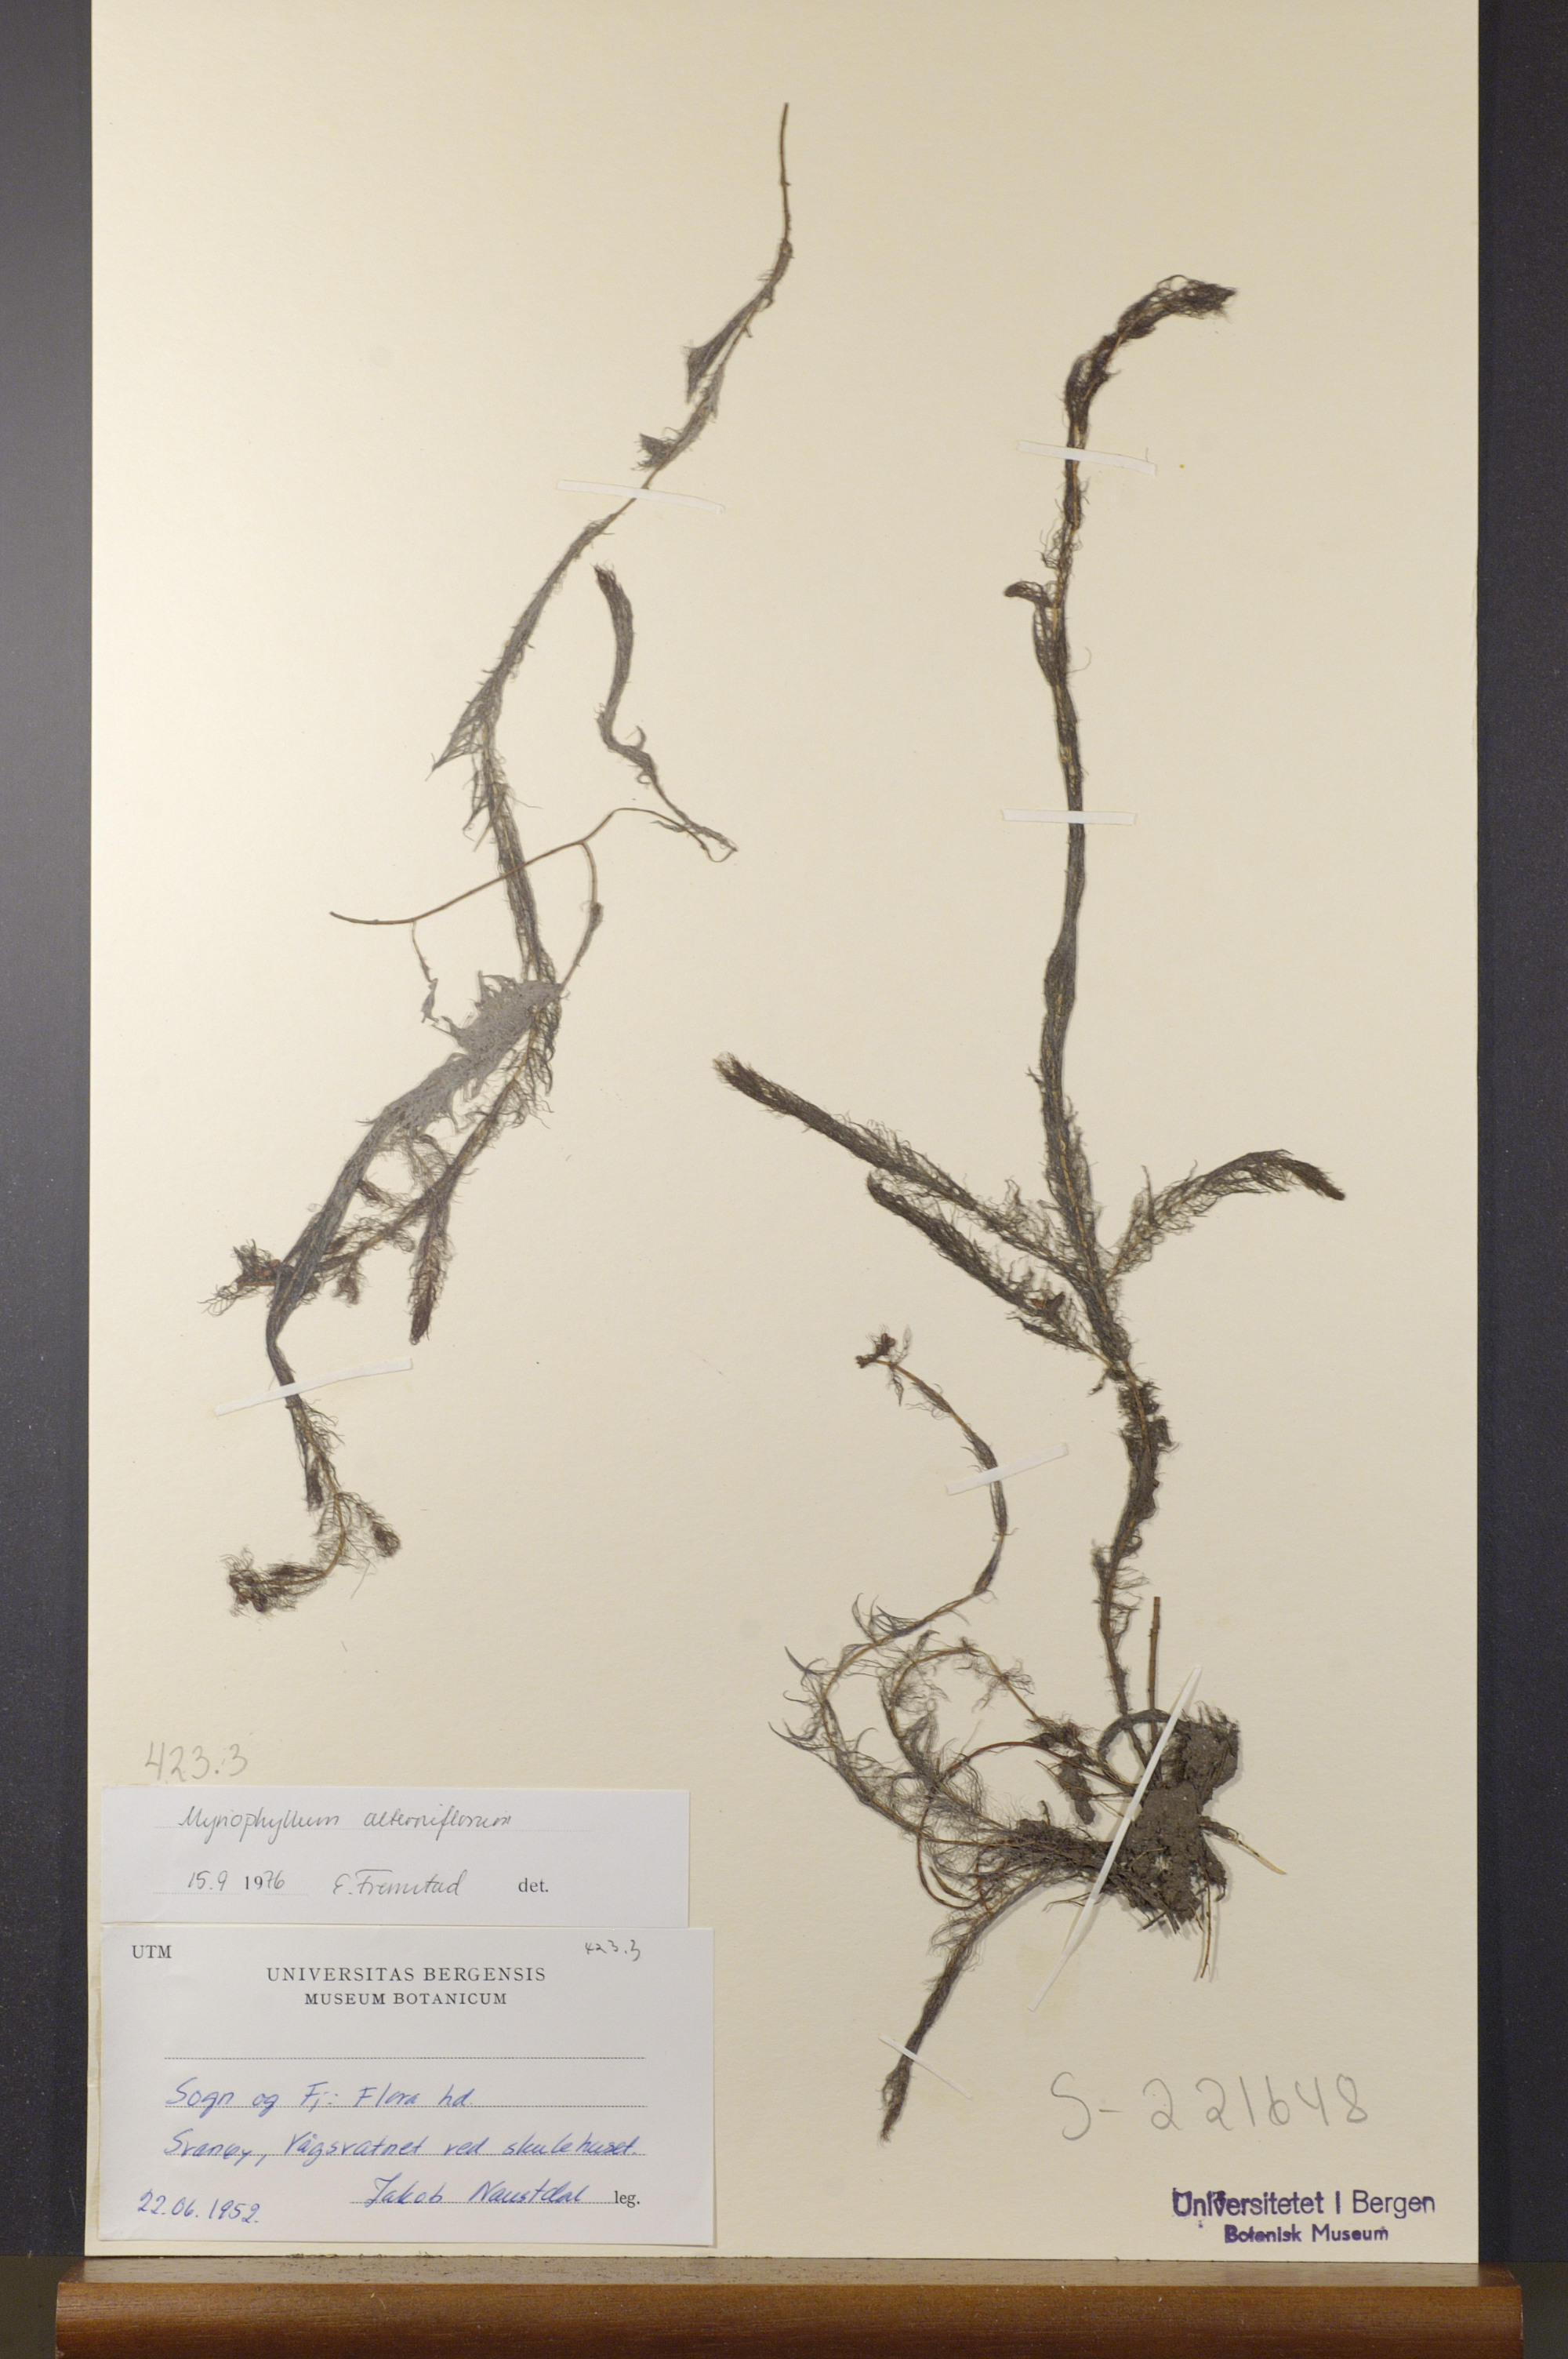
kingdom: Plantae
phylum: Tracheophyta
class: Magnoliopsida
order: Saxifragales
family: Haloragaceae
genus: Myriophyllum
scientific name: Myriophyllum alterniflorum
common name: Alternate water-milfoil
